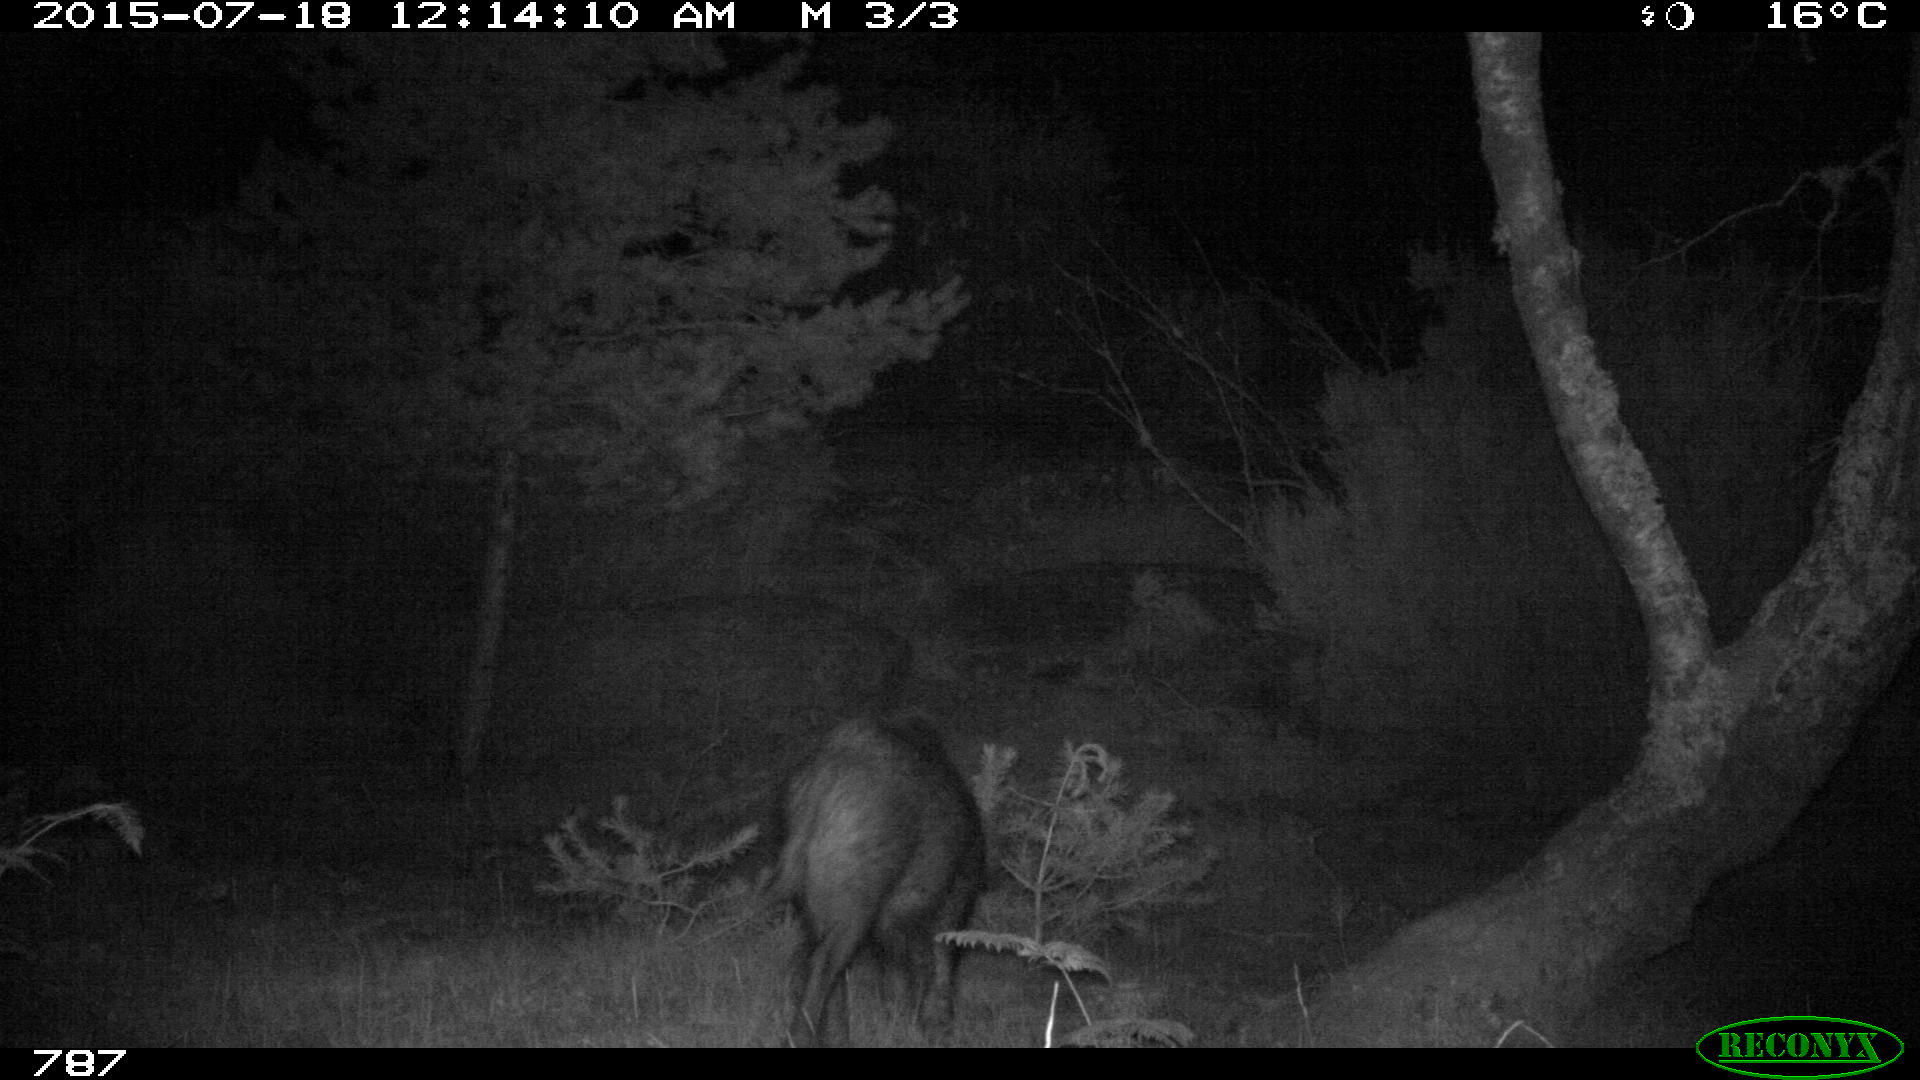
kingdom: Animalia
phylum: Chordata
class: Mammalia
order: Artiodactyla
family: Suidae
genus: Sus
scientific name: Sus scrofa
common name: Wild boar
